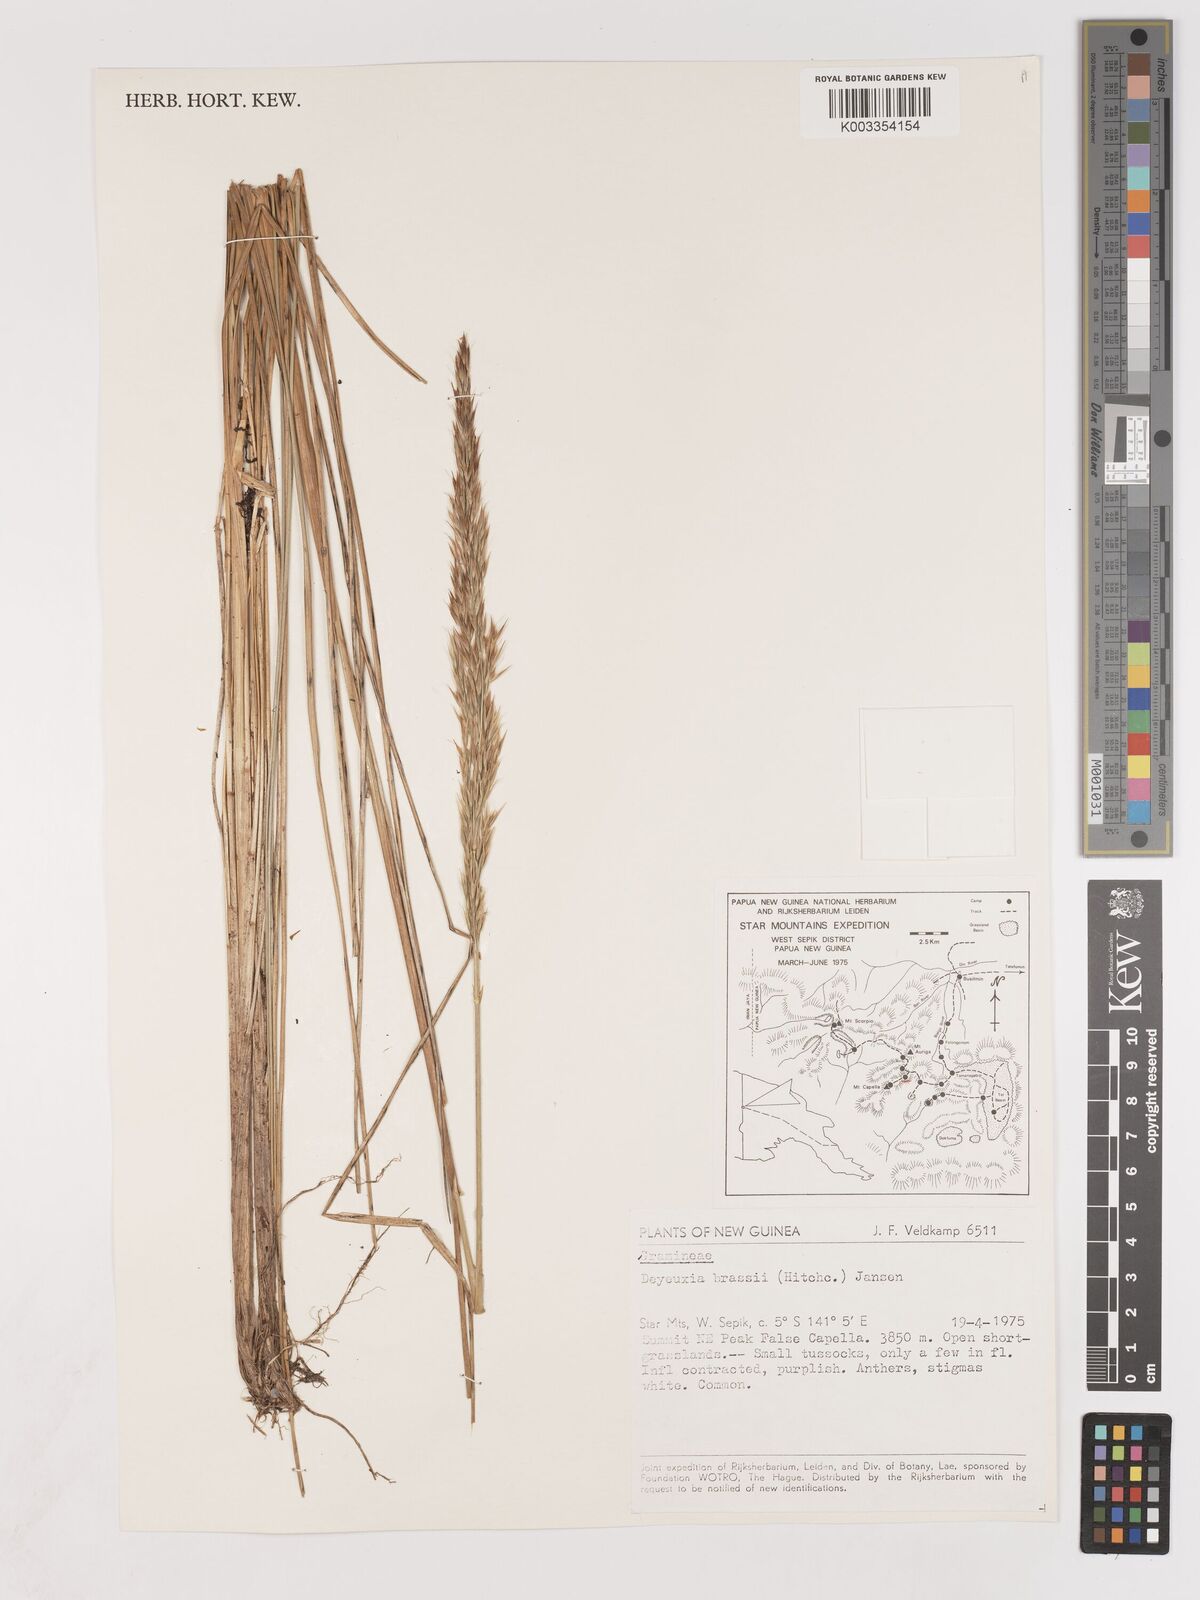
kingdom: Plantae
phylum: Tracheophyta
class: Liliopsida
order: Poales
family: Poaceae
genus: Calamagrostis
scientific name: Calamagrostis brassii
